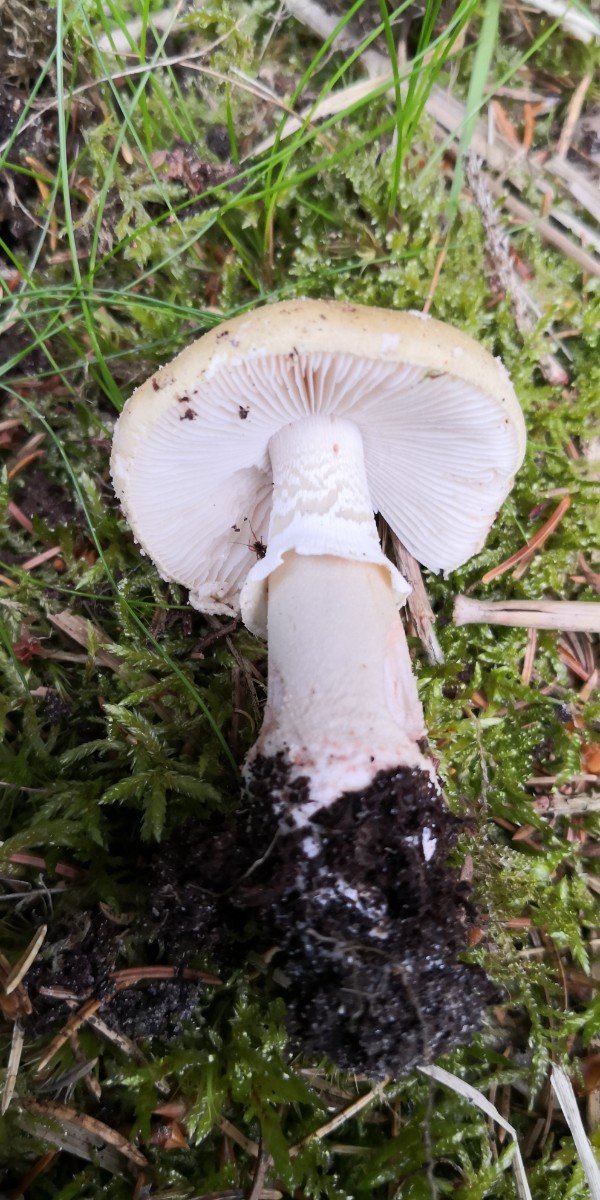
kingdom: Fungi
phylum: Basidiomycota
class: Agaricomycetes
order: Agaricales
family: Amanitaceae
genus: Amanita
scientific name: Amanita rubescens
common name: rødmende fluesvamp
